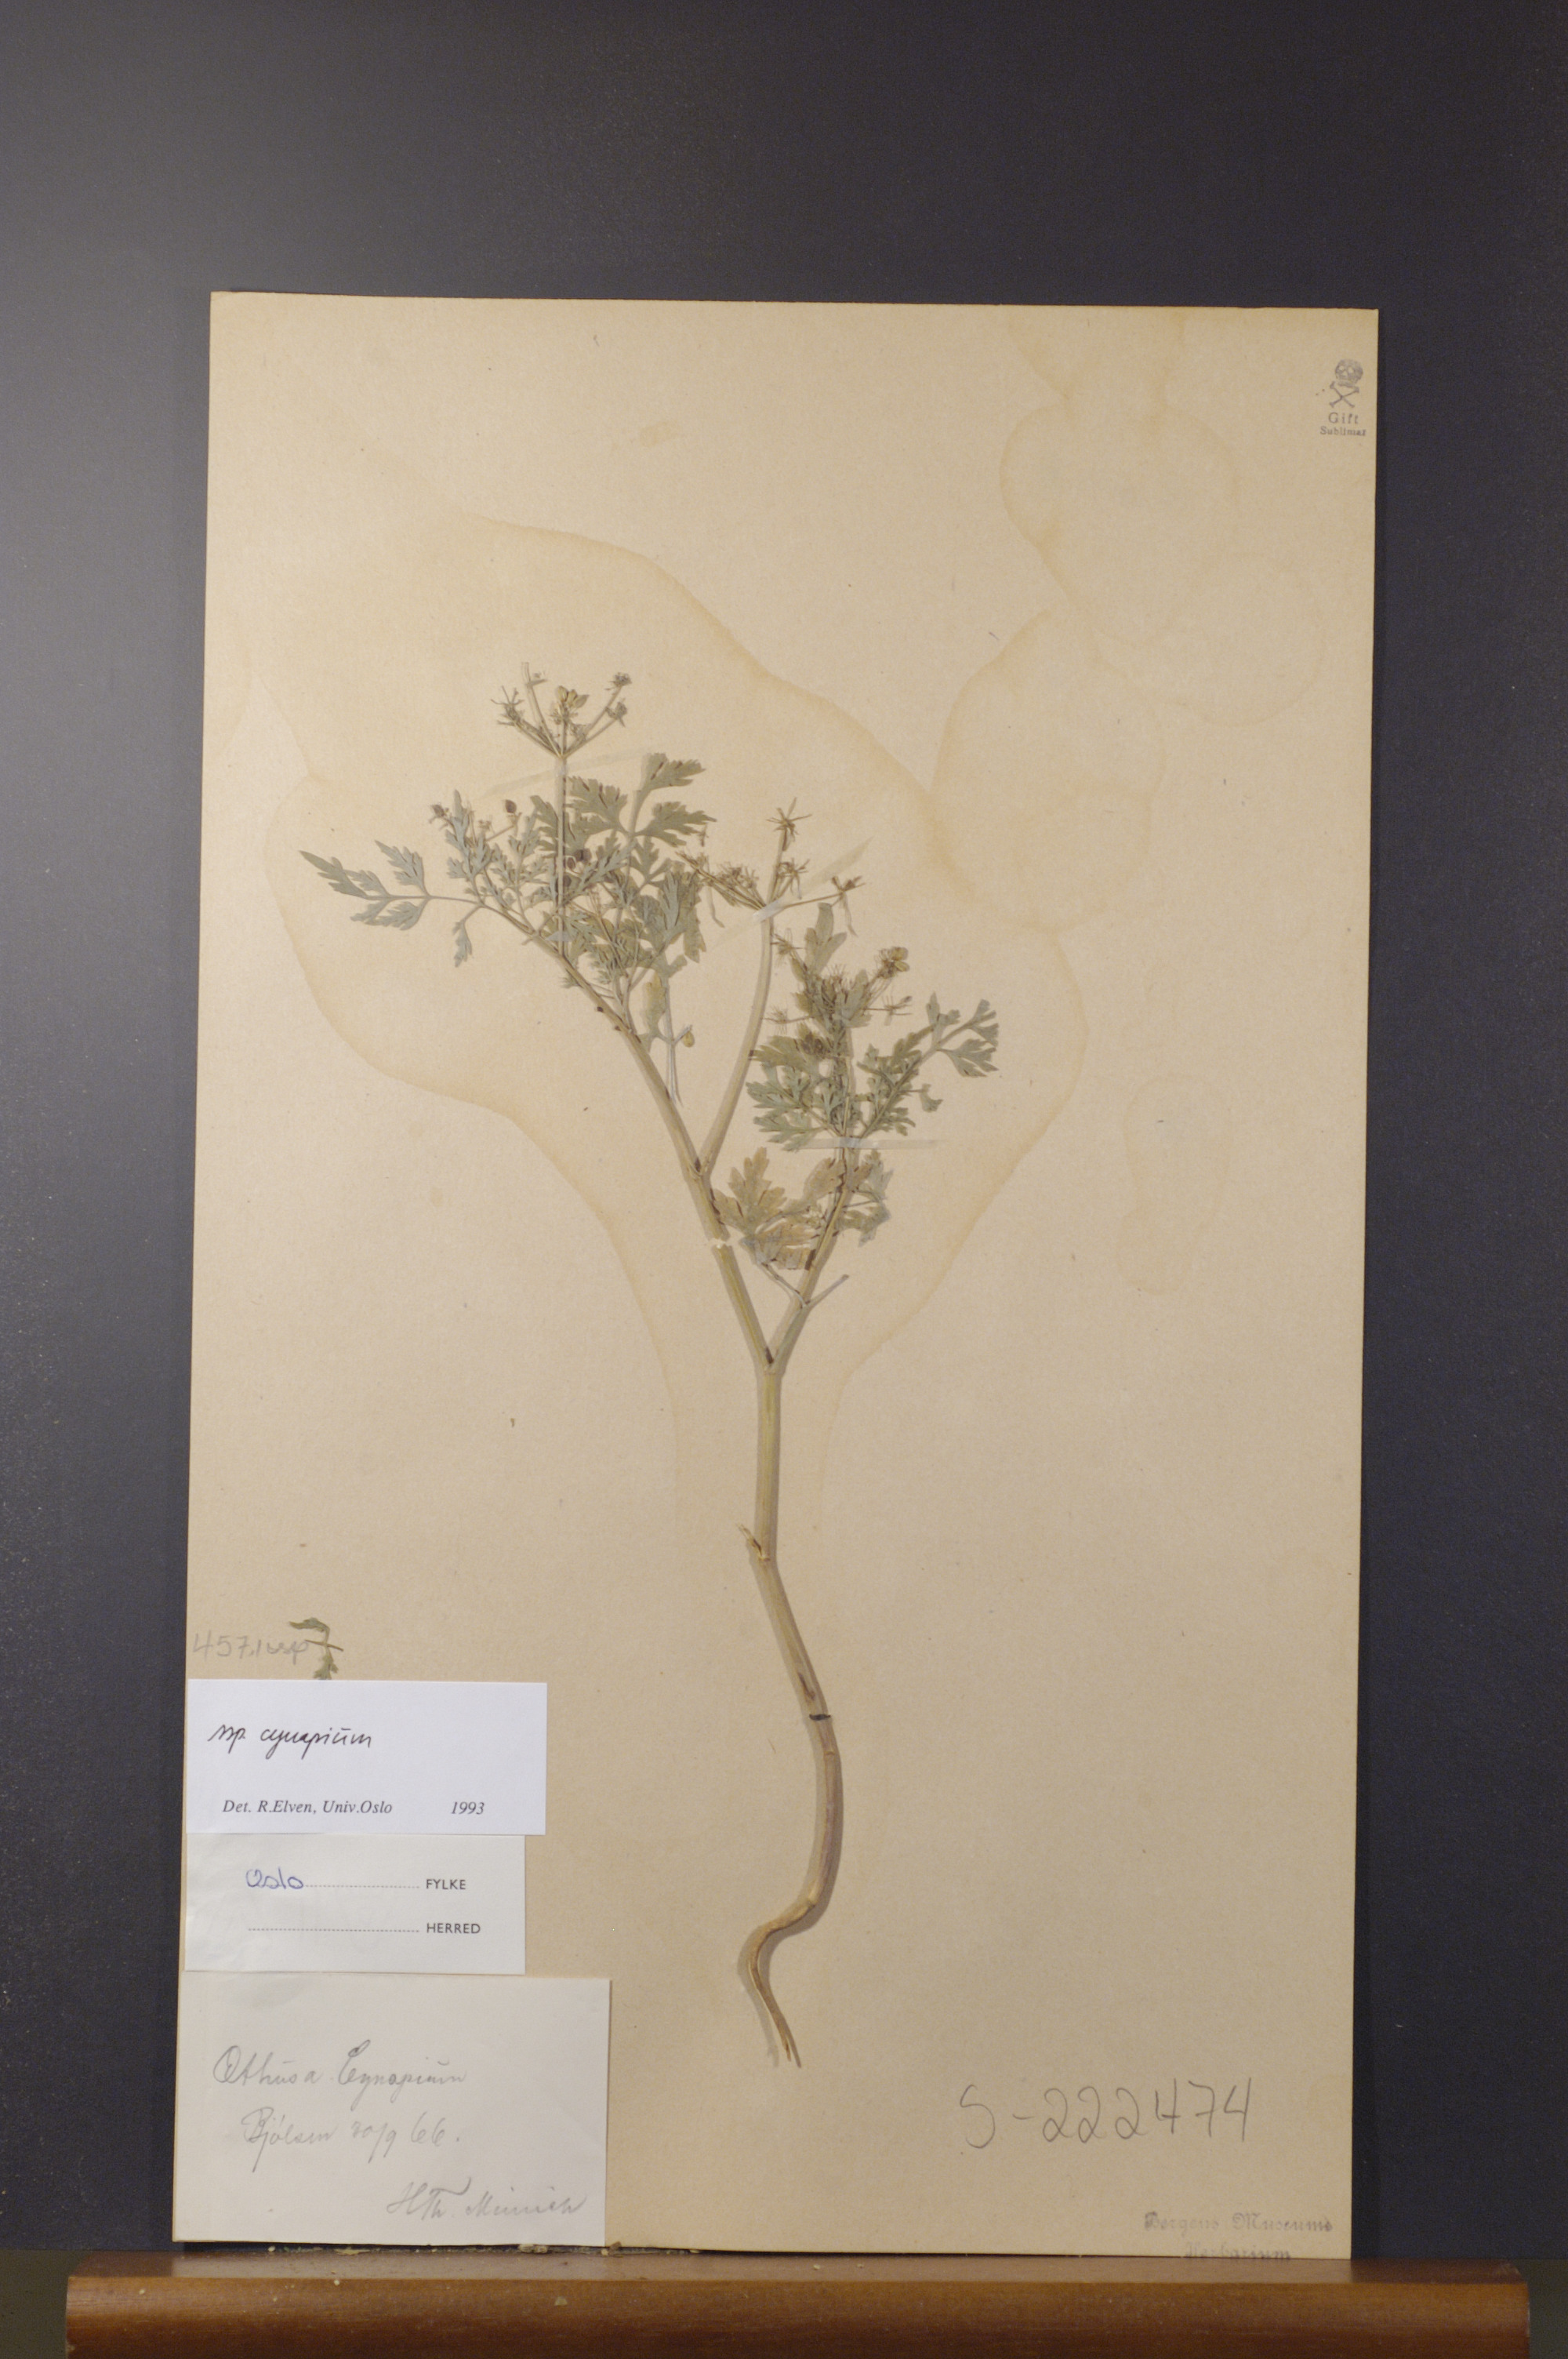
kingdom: Plantae
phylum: Tracheophyta
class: Magnoliopsida
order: Apiales
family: Apiaceae
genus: Aethusa
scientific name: Aethusa cynapium
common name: Fool's parsley
